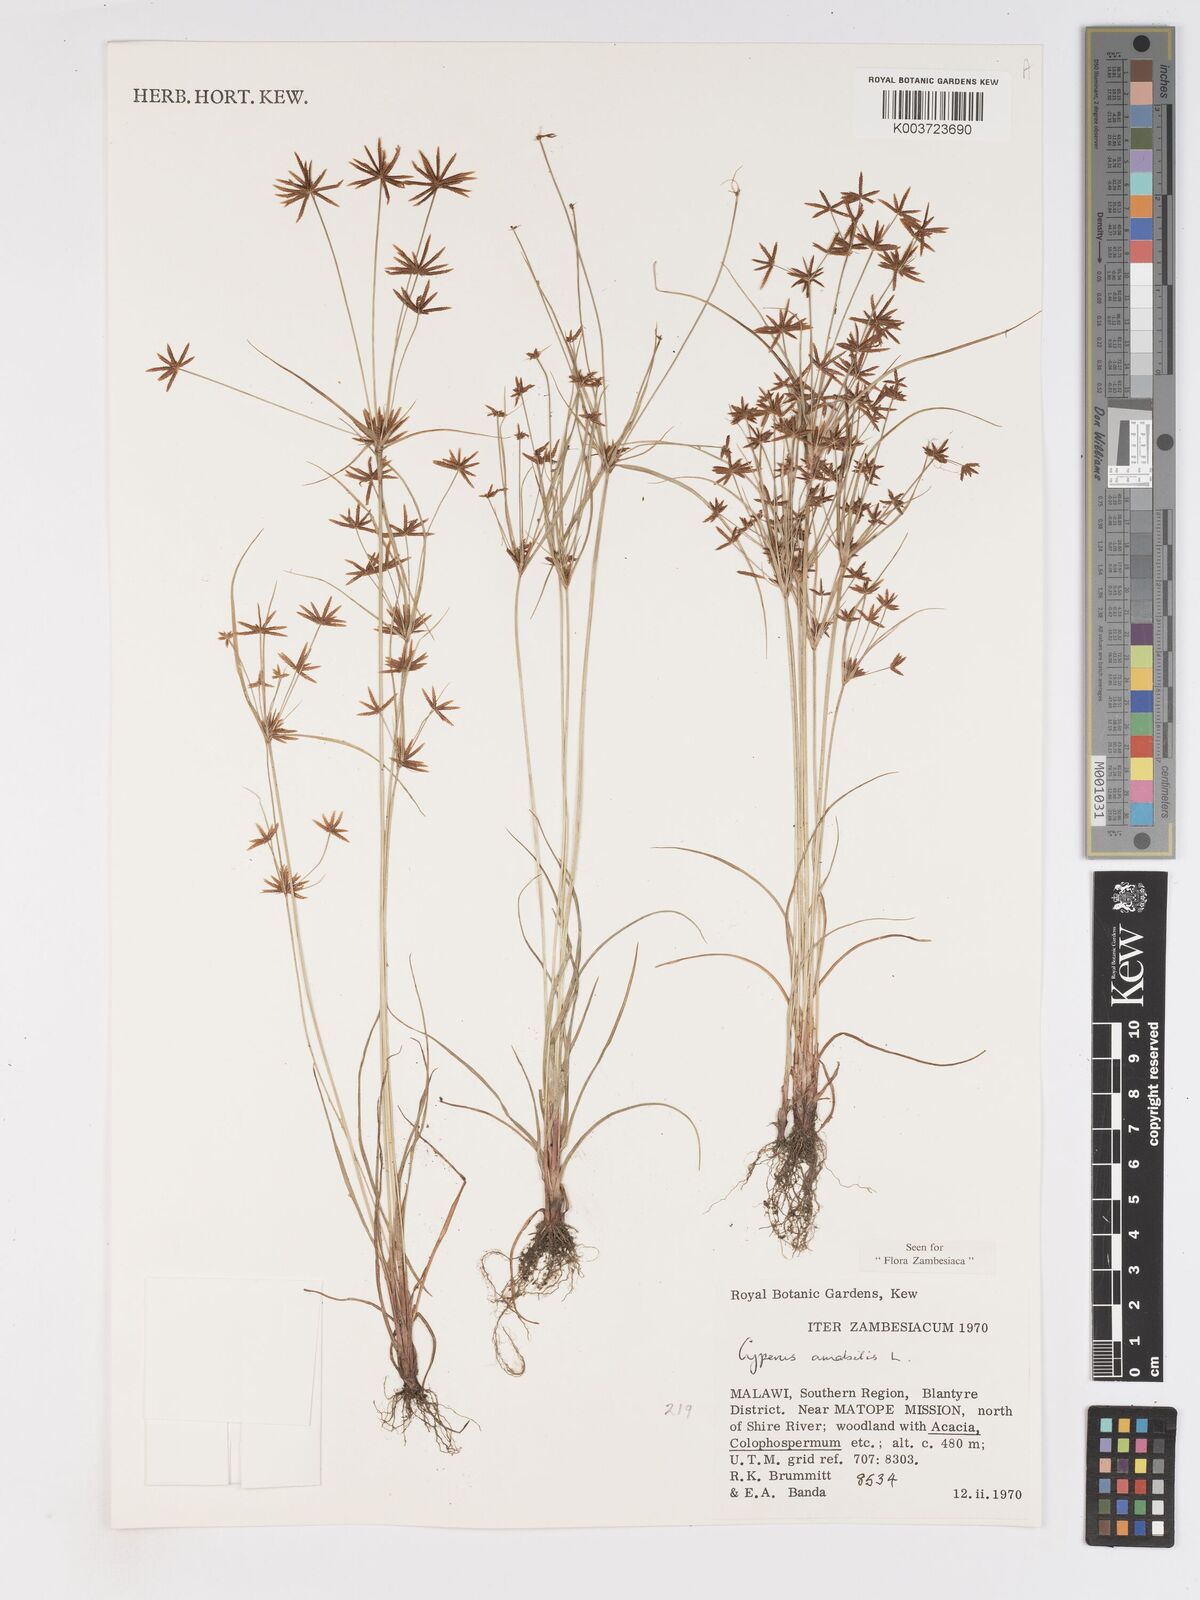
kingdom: Plantae
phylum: Tracheophyta
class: Liliopsida
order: Poales
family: Cyperaceae
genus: Cyperus
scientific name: Cyperus amabilis
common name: Foothill flat sedge
